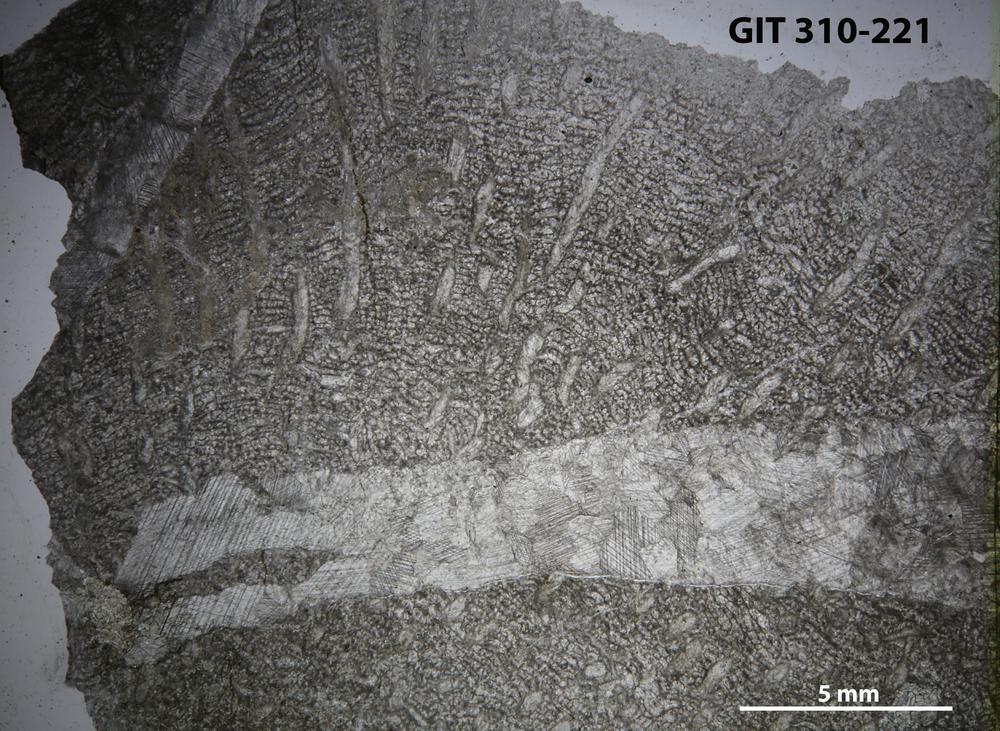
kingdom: Animalia
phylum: Cnidaria
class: Anthozoa
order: Heliolitina
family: Heliolitidae
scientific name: Heliolitidae
